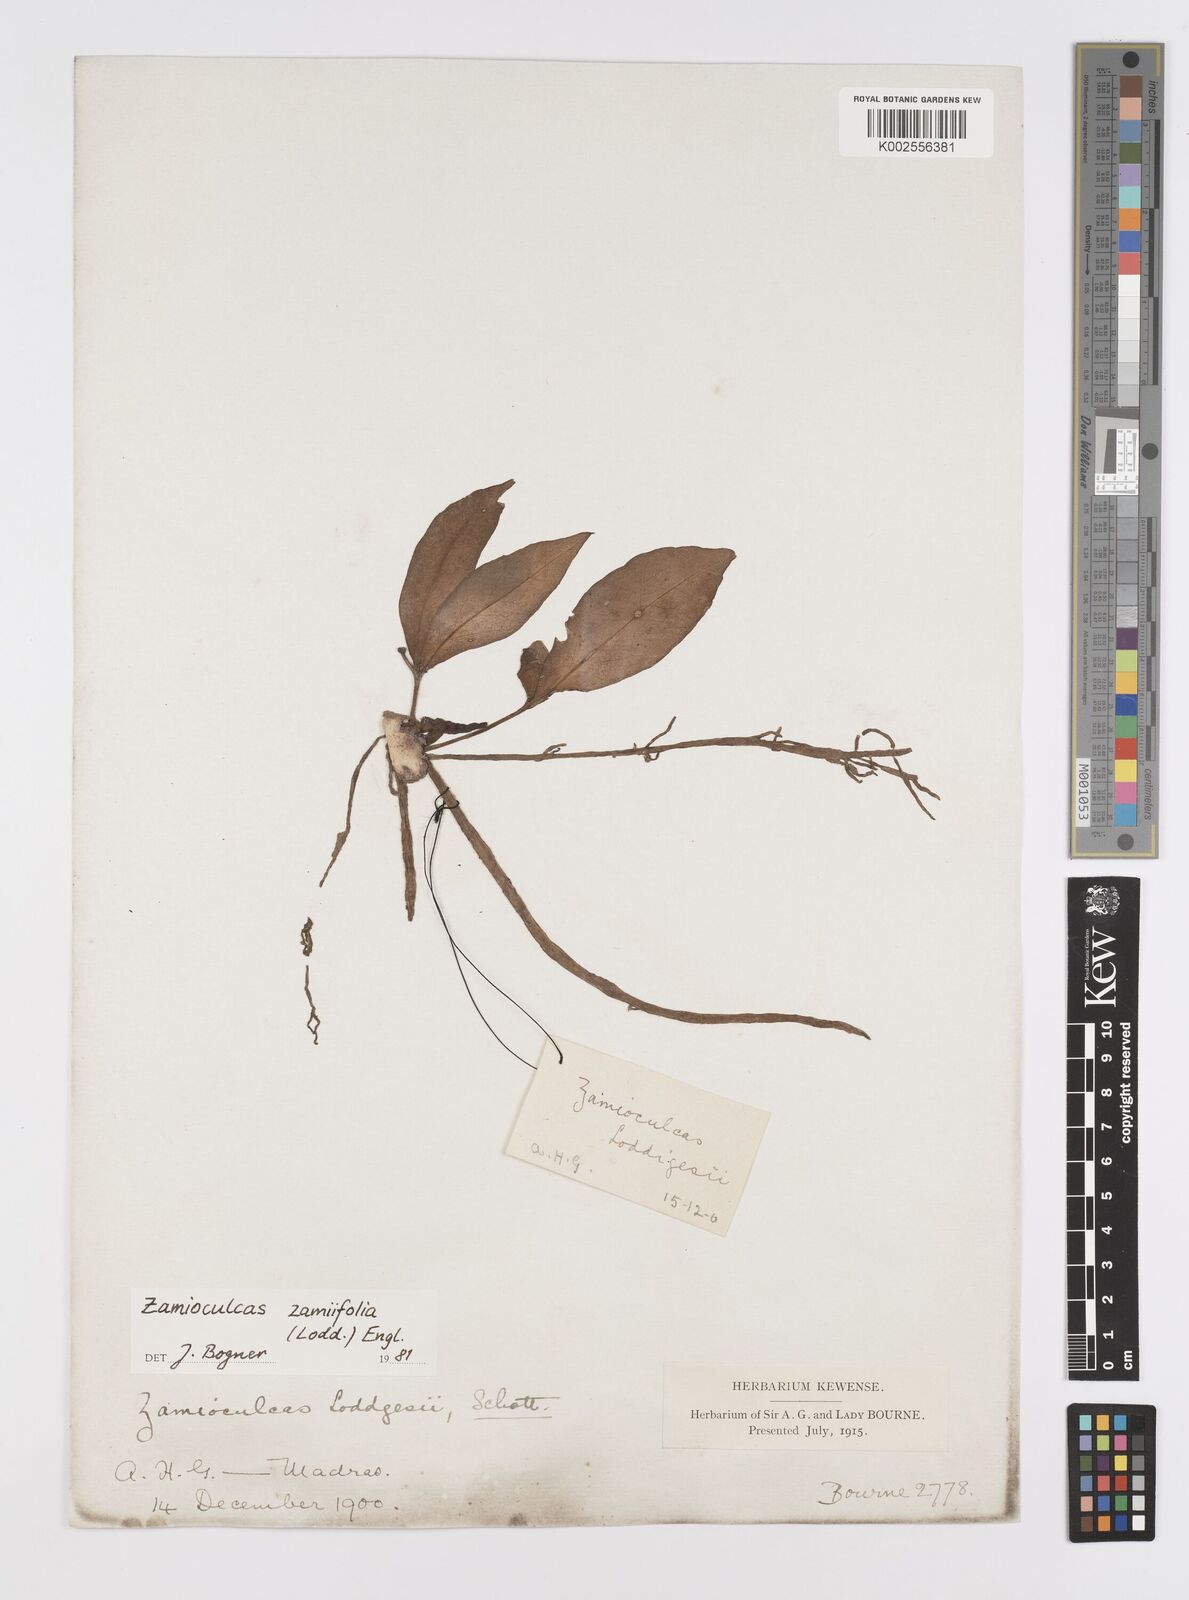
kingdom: Plantae
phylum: Tracheophyta
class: Liliopsida
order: Alismatales
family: Araceae
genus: Zamioculcas
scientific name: Zamioculcas zamiifolia
